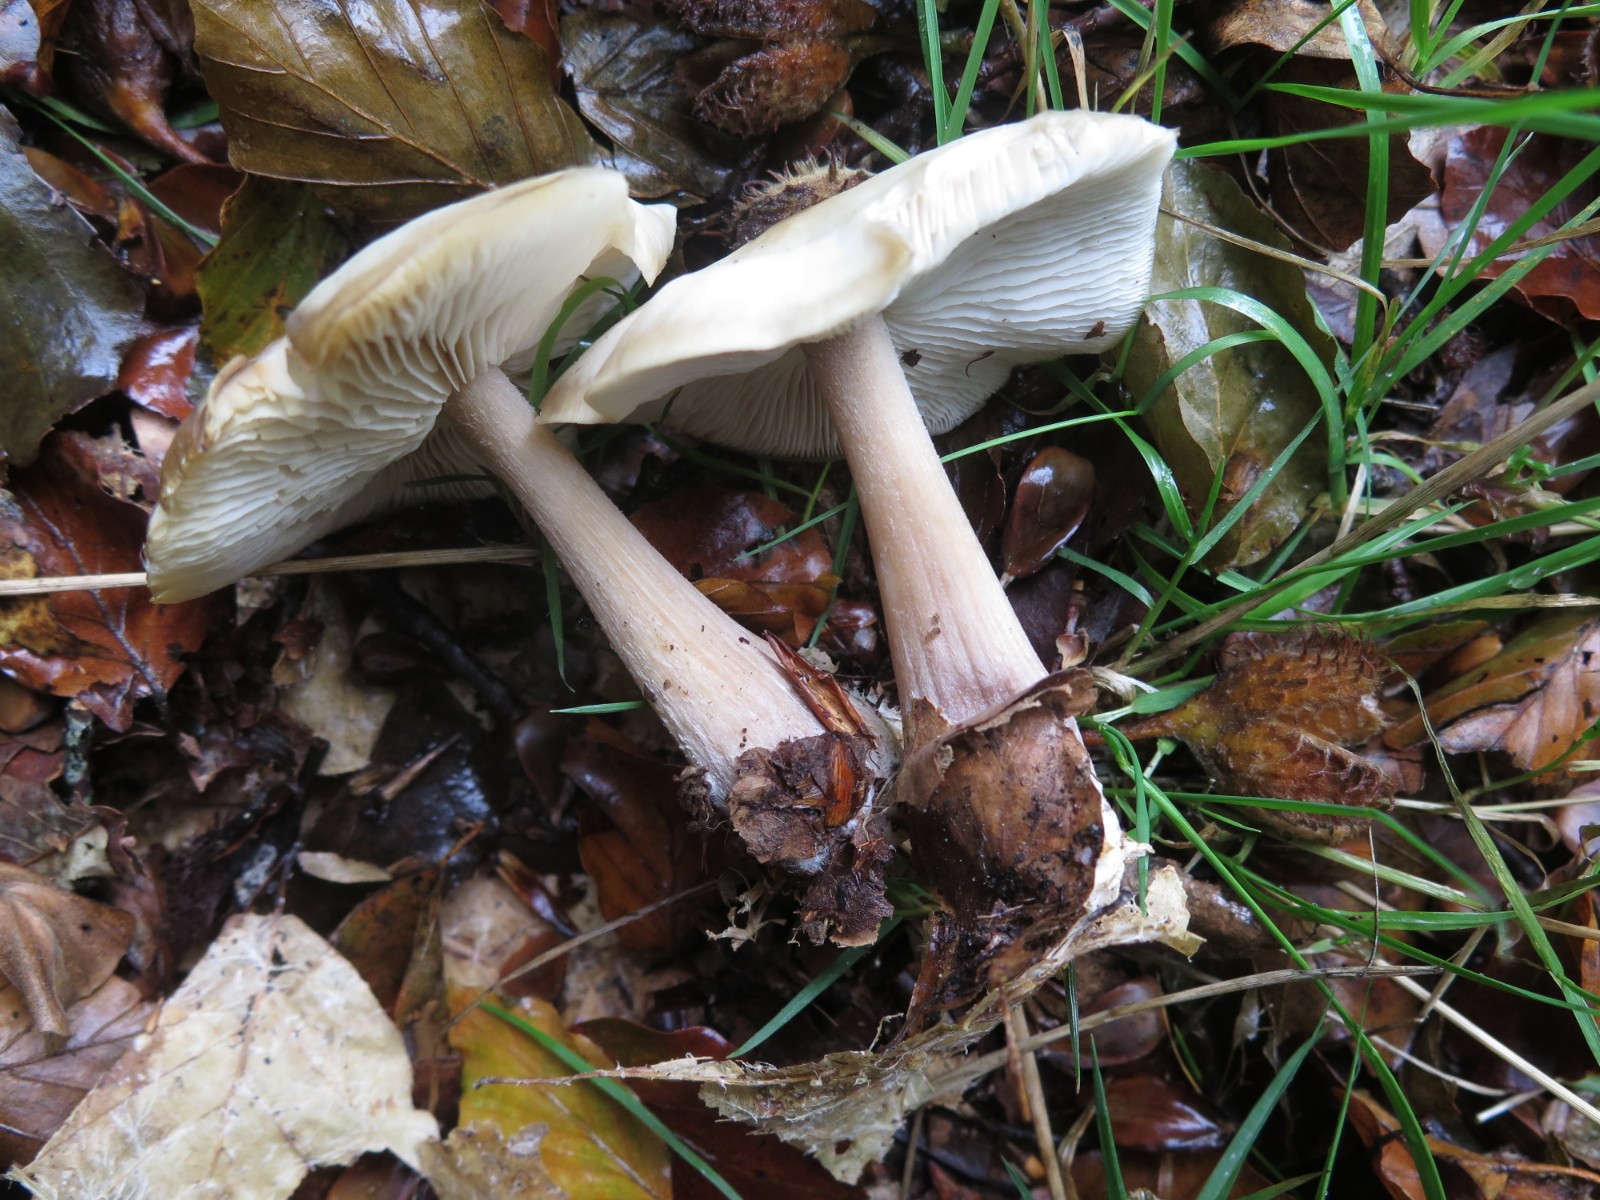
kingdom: Fungi
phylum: Basidiomycota
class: Agaricomycetes
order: Agaricales
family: Omphalotaceae
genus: Rhodocollybia
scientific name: Rhodocollybia asema
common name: horngrå fladhat
